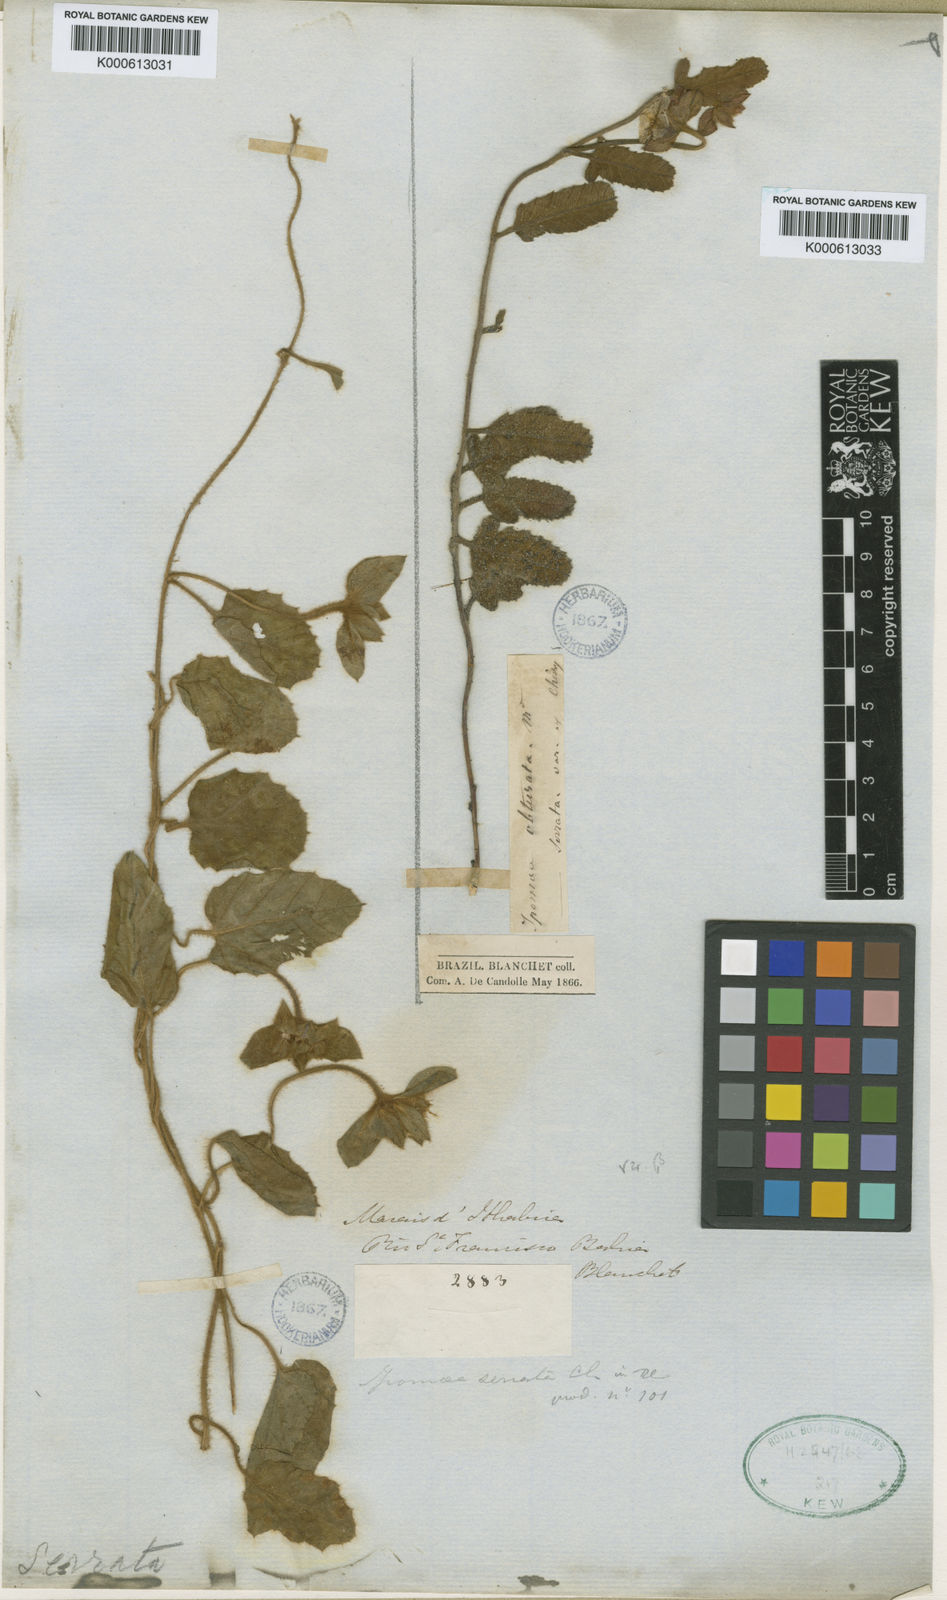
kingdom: Plantae
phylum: Tracheophyta
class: Magnoliopsida
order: Solanales
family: Convolvulaceae
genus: Daustinia
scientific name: Daustinia montana
